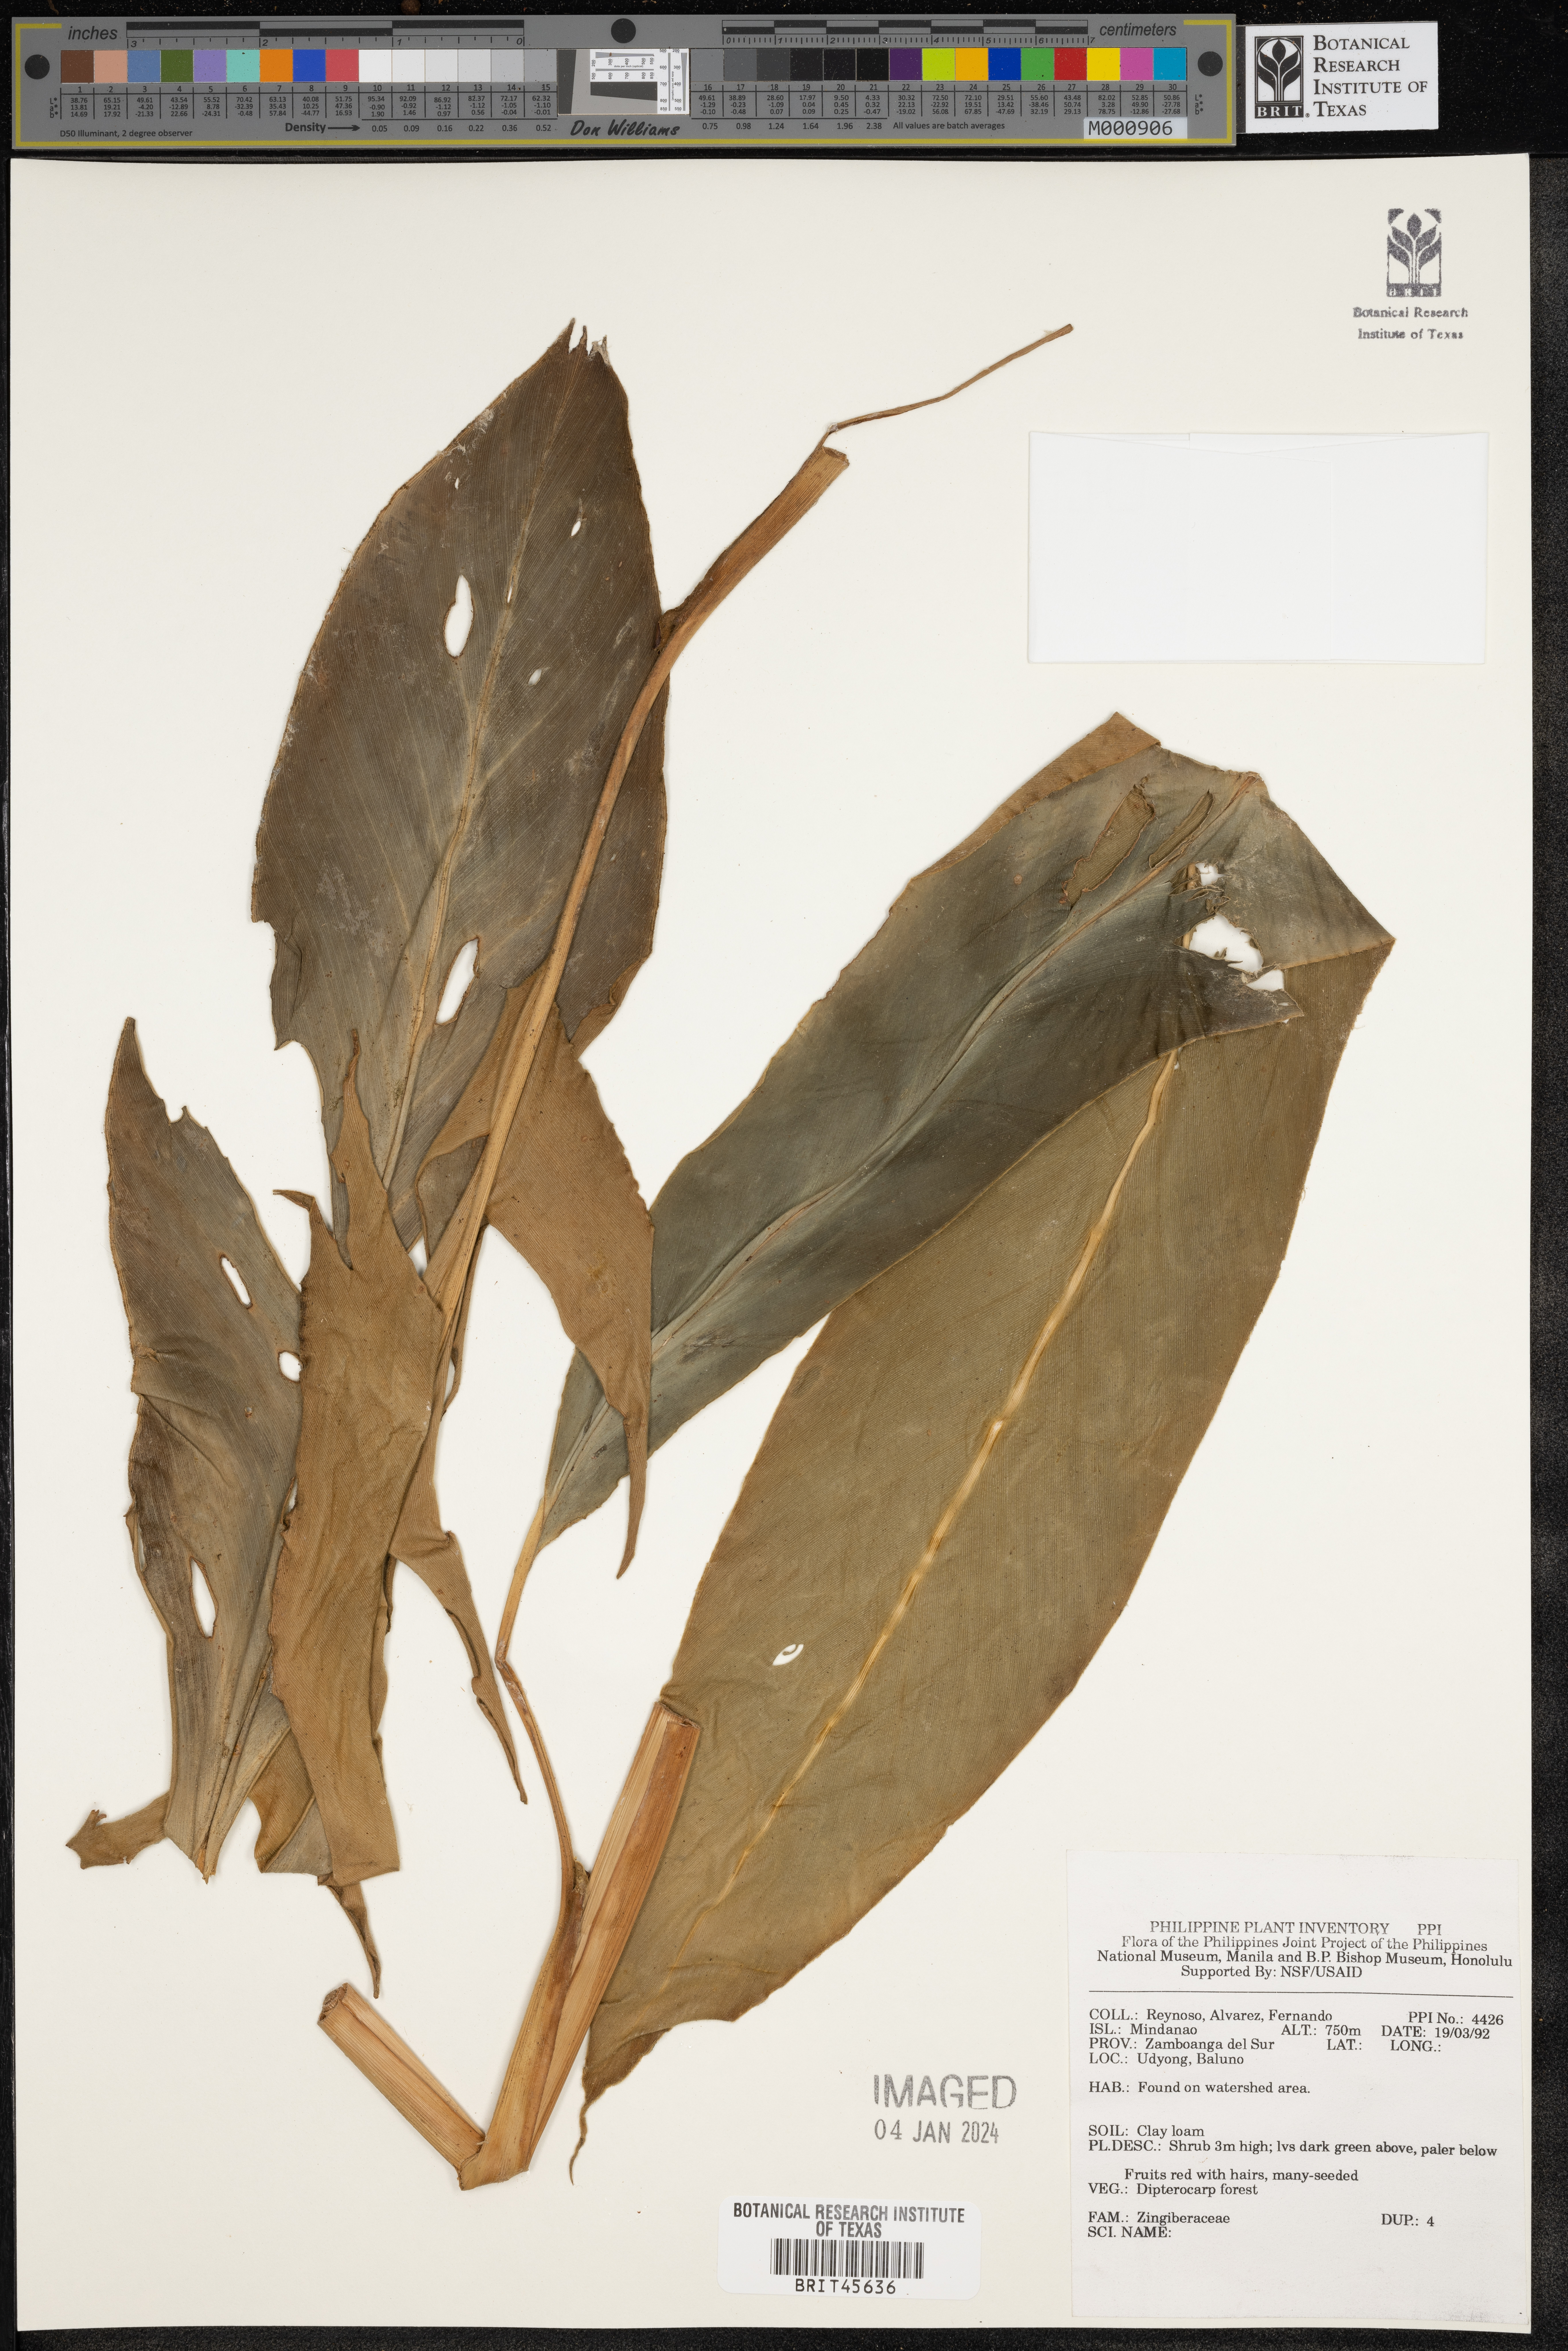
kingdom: Plantae
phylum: Tracheophyta
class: Liliopsida
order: Zingiberales
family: Zingiberaceae
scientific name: Zingiberaceae
